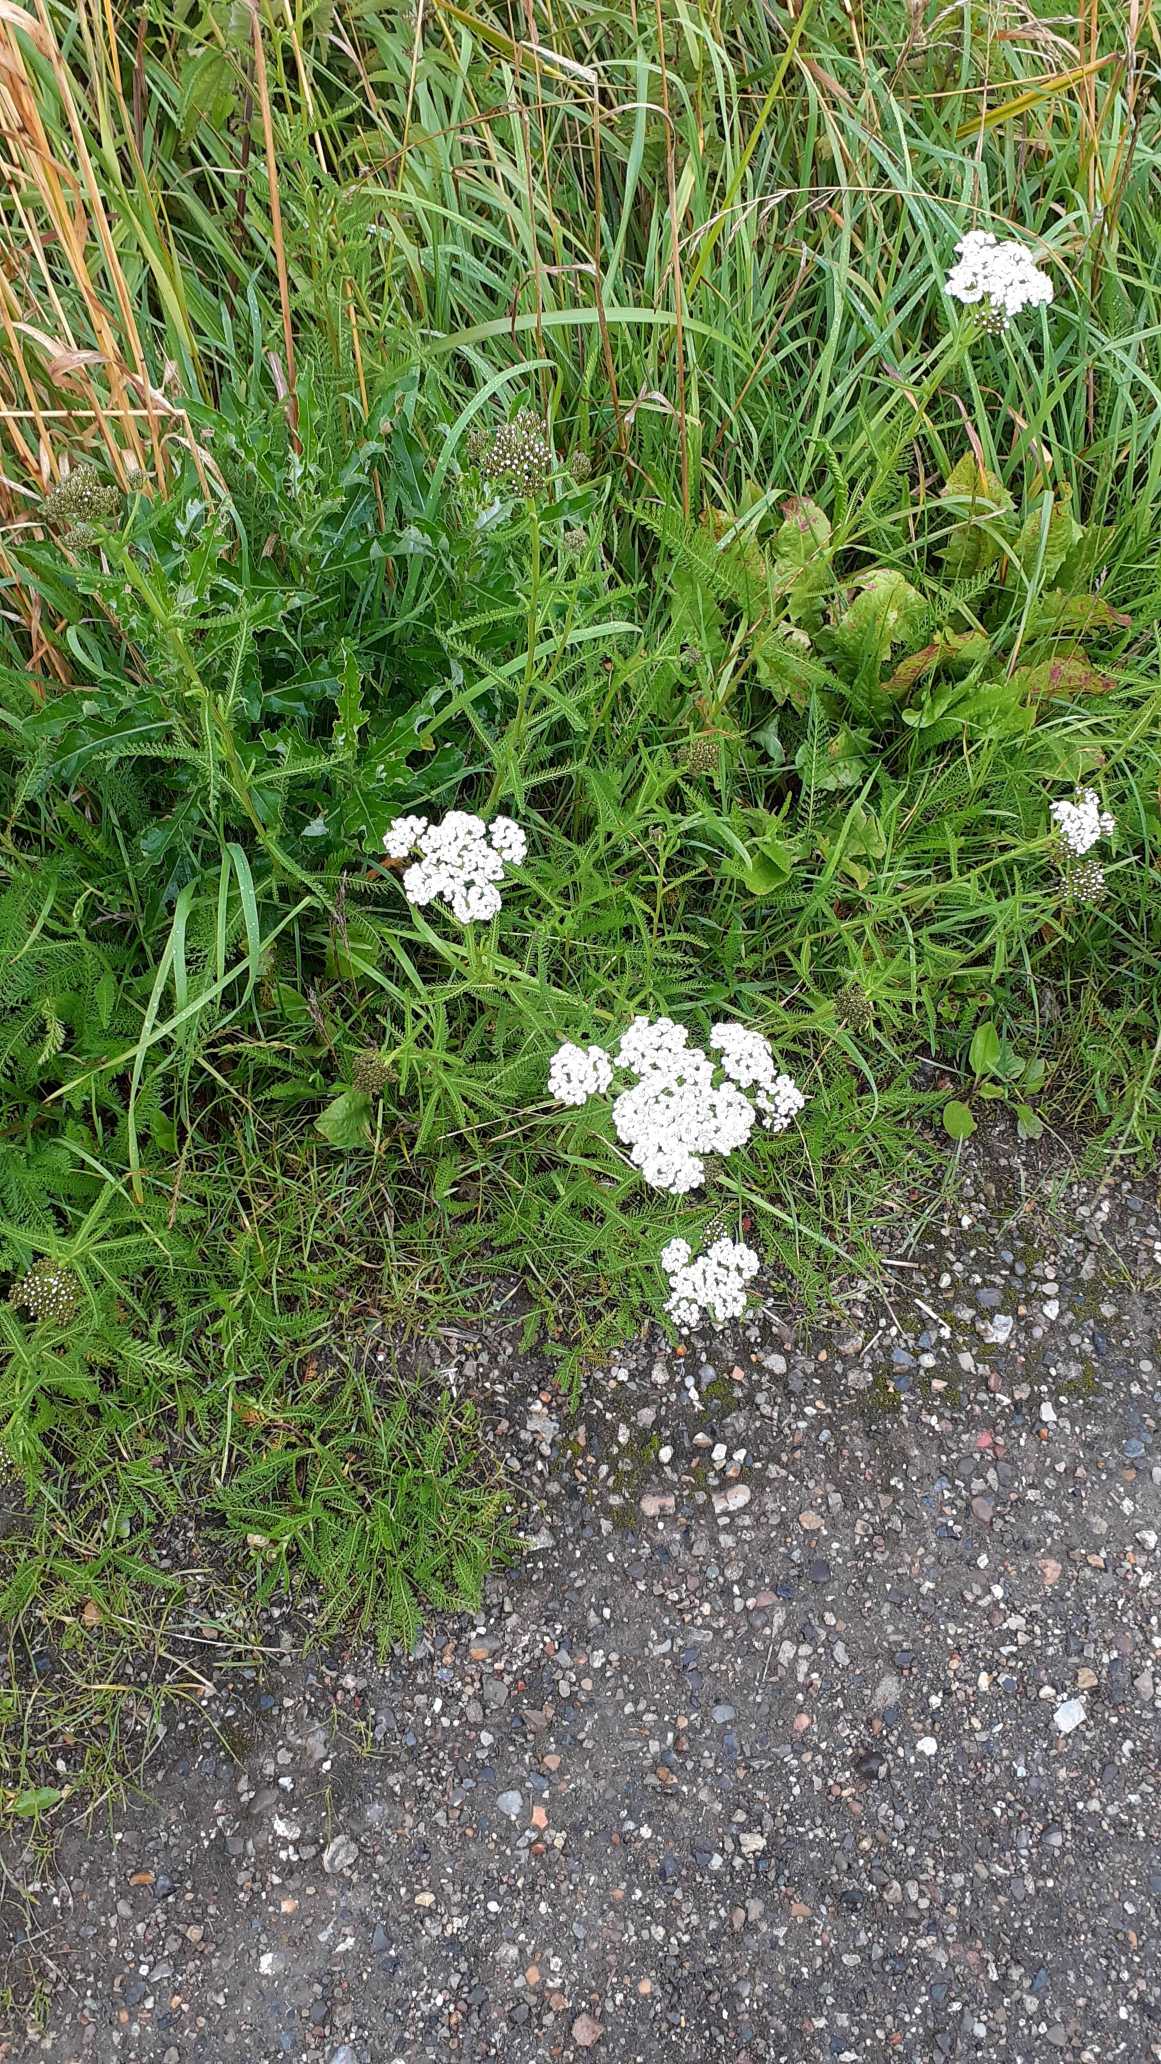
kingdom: Plantae
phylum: Tracheophyta
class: Magnoliopsida
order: Asterales
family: Asteraceae
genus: Achillea
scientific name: Achillea millefolium
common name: Almindelig røllike
